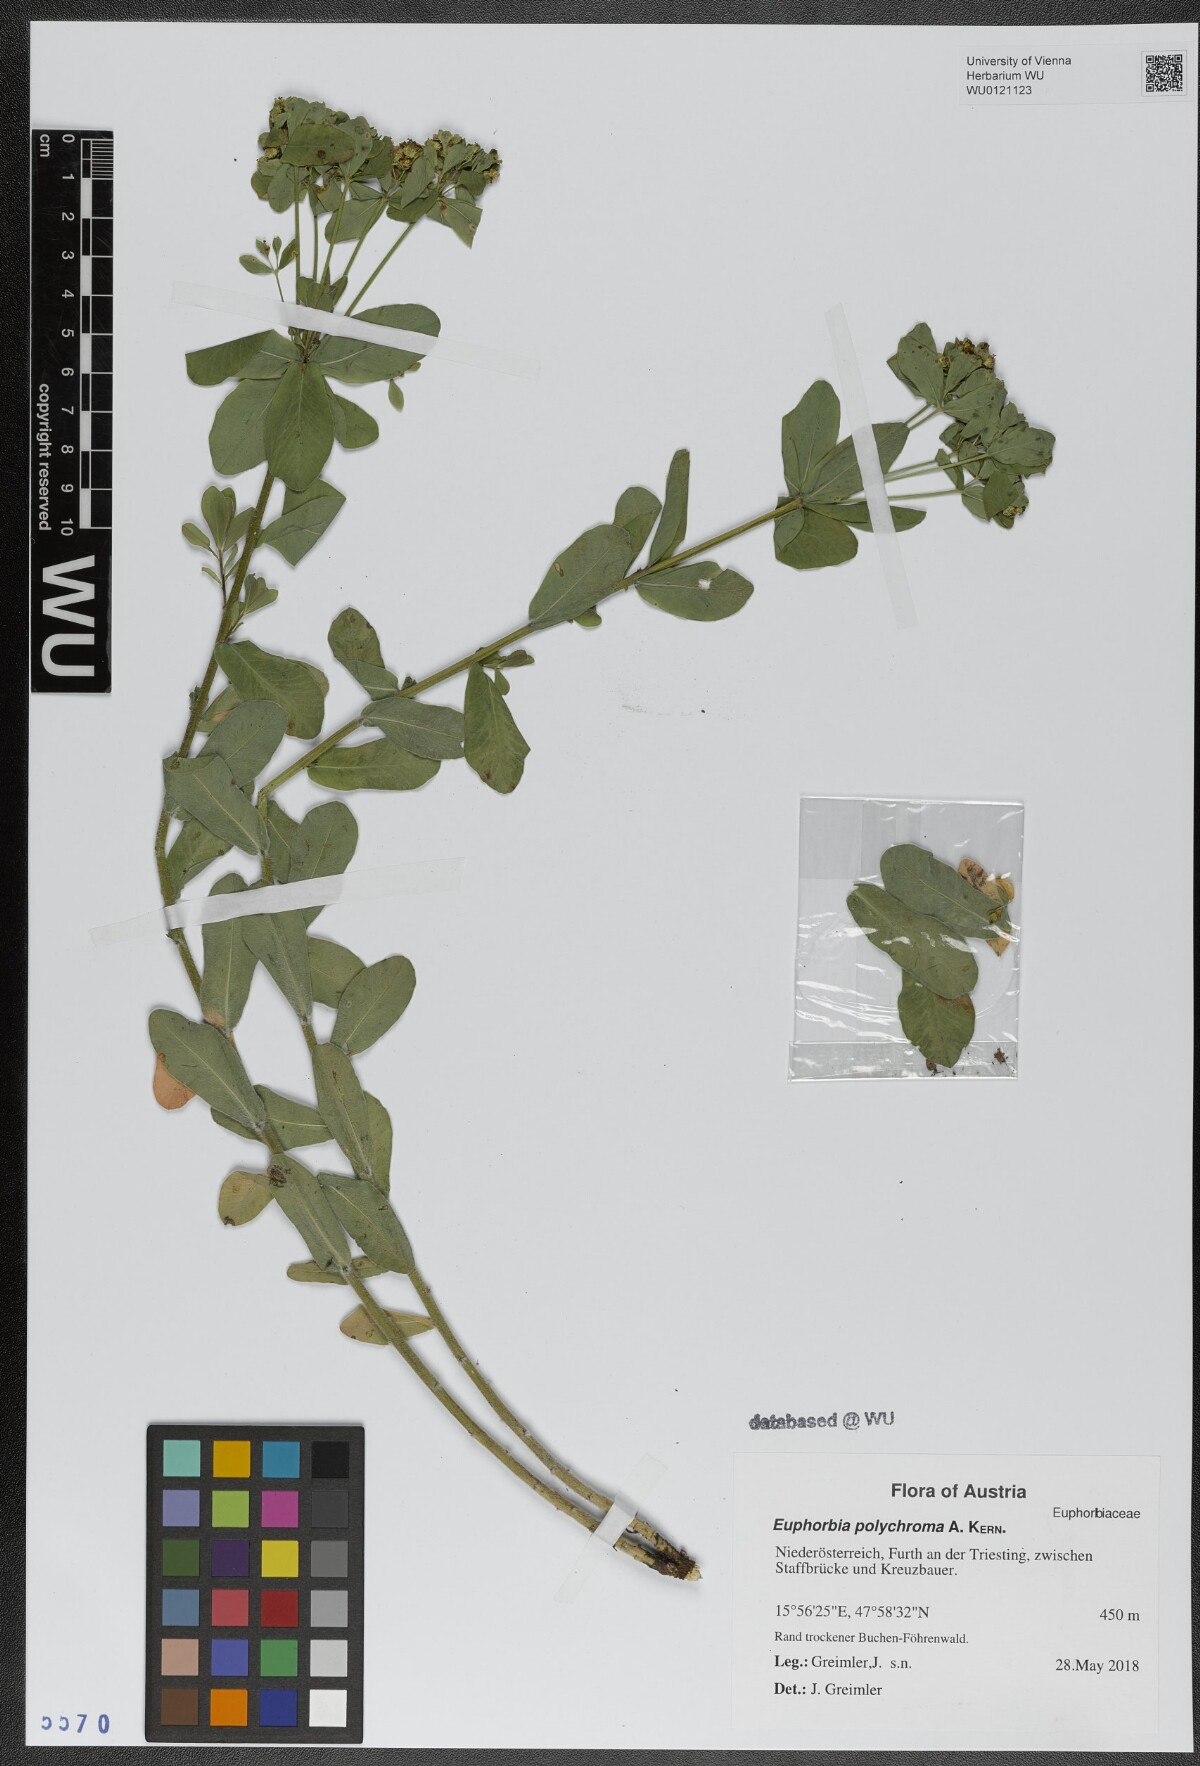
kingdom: Plantae
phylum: Tracheophyta
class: Magnoliopsida
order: Malpighiales
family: Euphorbiaceae
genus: Euphorbia
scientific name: Euphorbia epithymoides
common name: Cushion spurge
